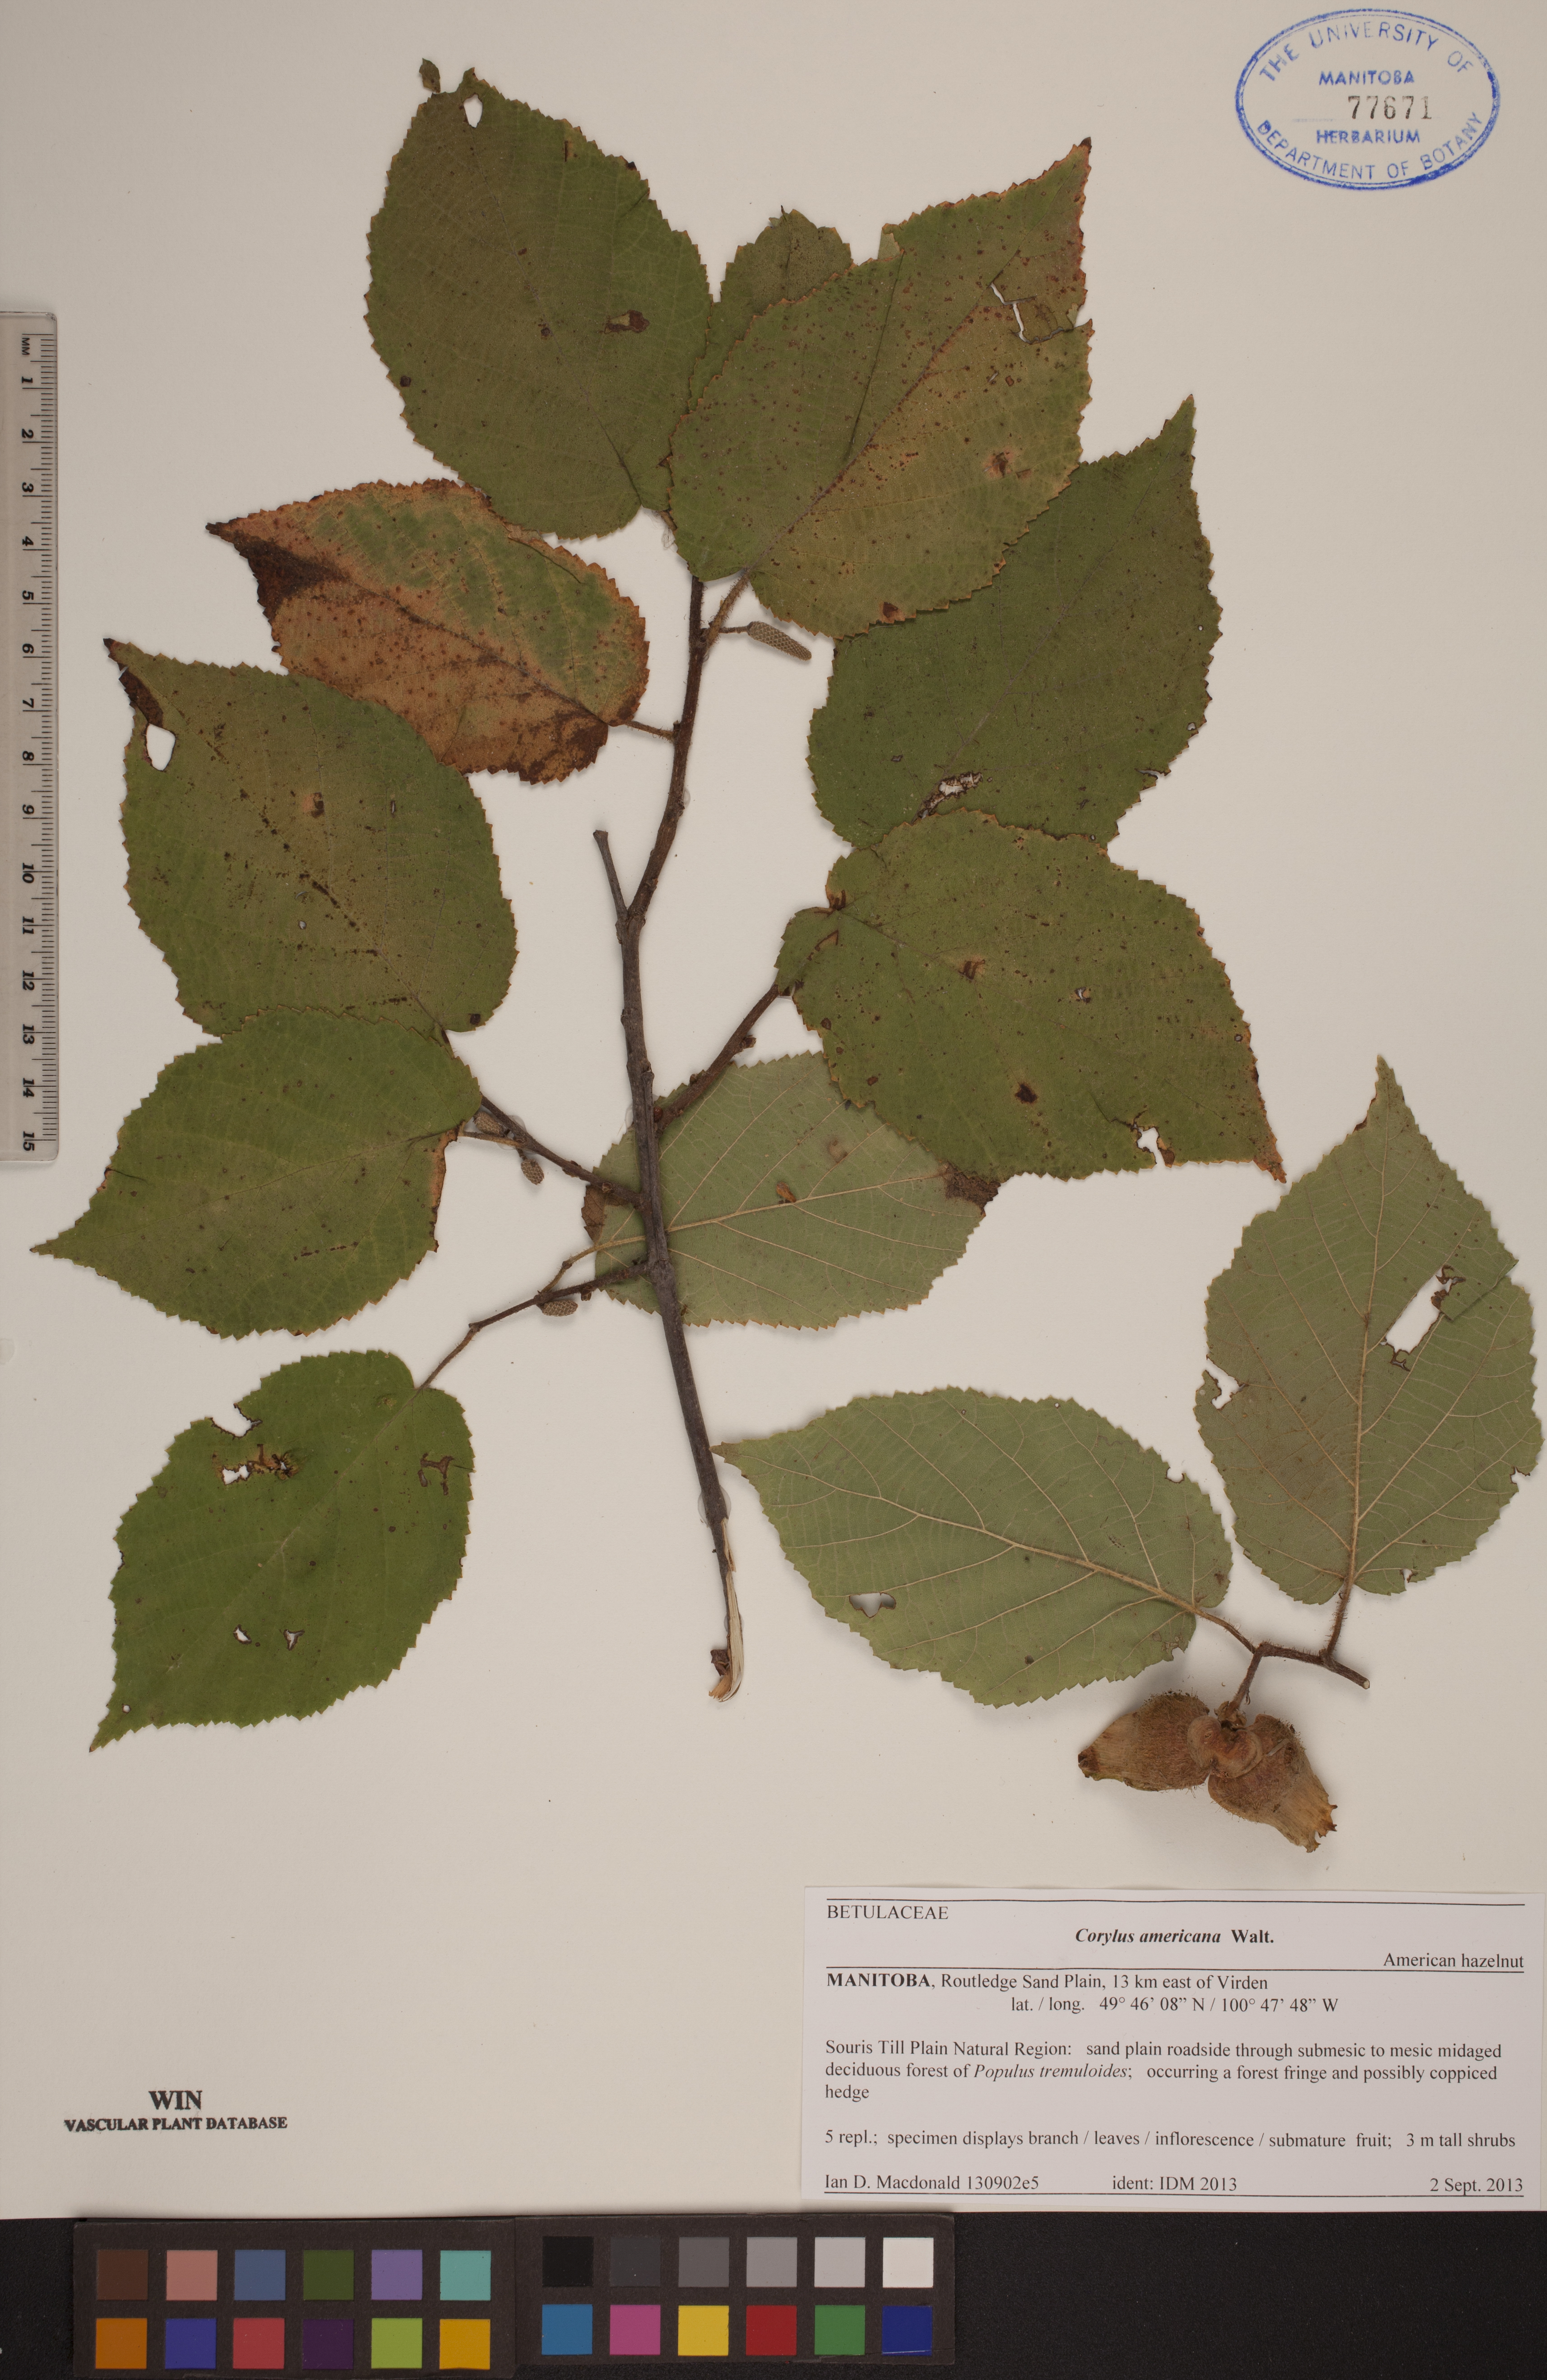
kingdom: Plantae
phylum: Tracheophyta
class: Magnoliopsida
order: Fagales
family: Betulaceae
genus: Corylus
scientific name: Corylus americana
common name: American hazel
